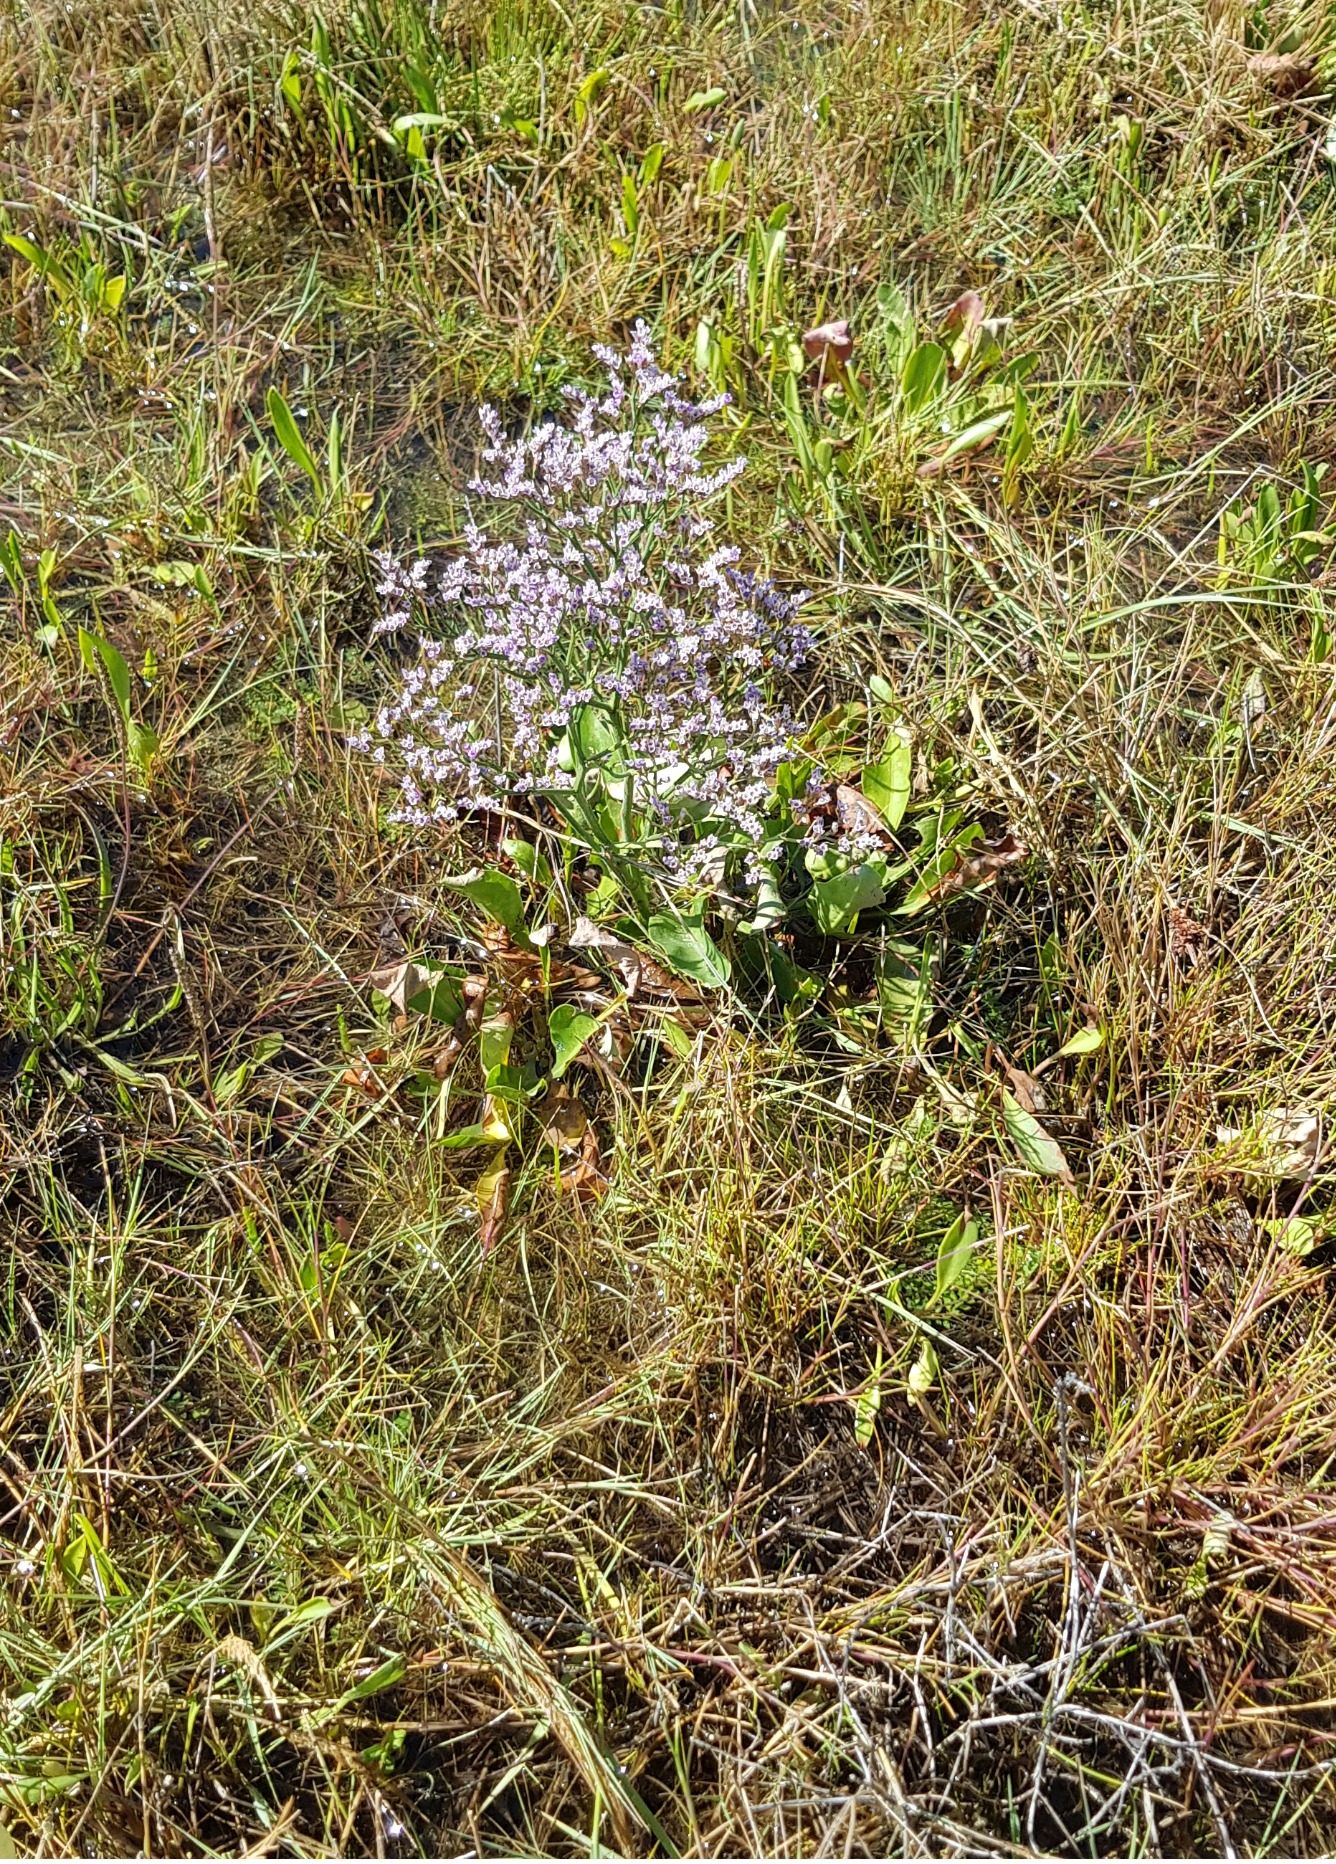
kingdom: Plantae
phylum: Tracheophyta
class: Magnoliopsida
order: Caryophyllales
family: Plumbaginaceae
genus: Limonium
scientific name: Limonium vulgare
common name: Tætblomstret hindebæger
